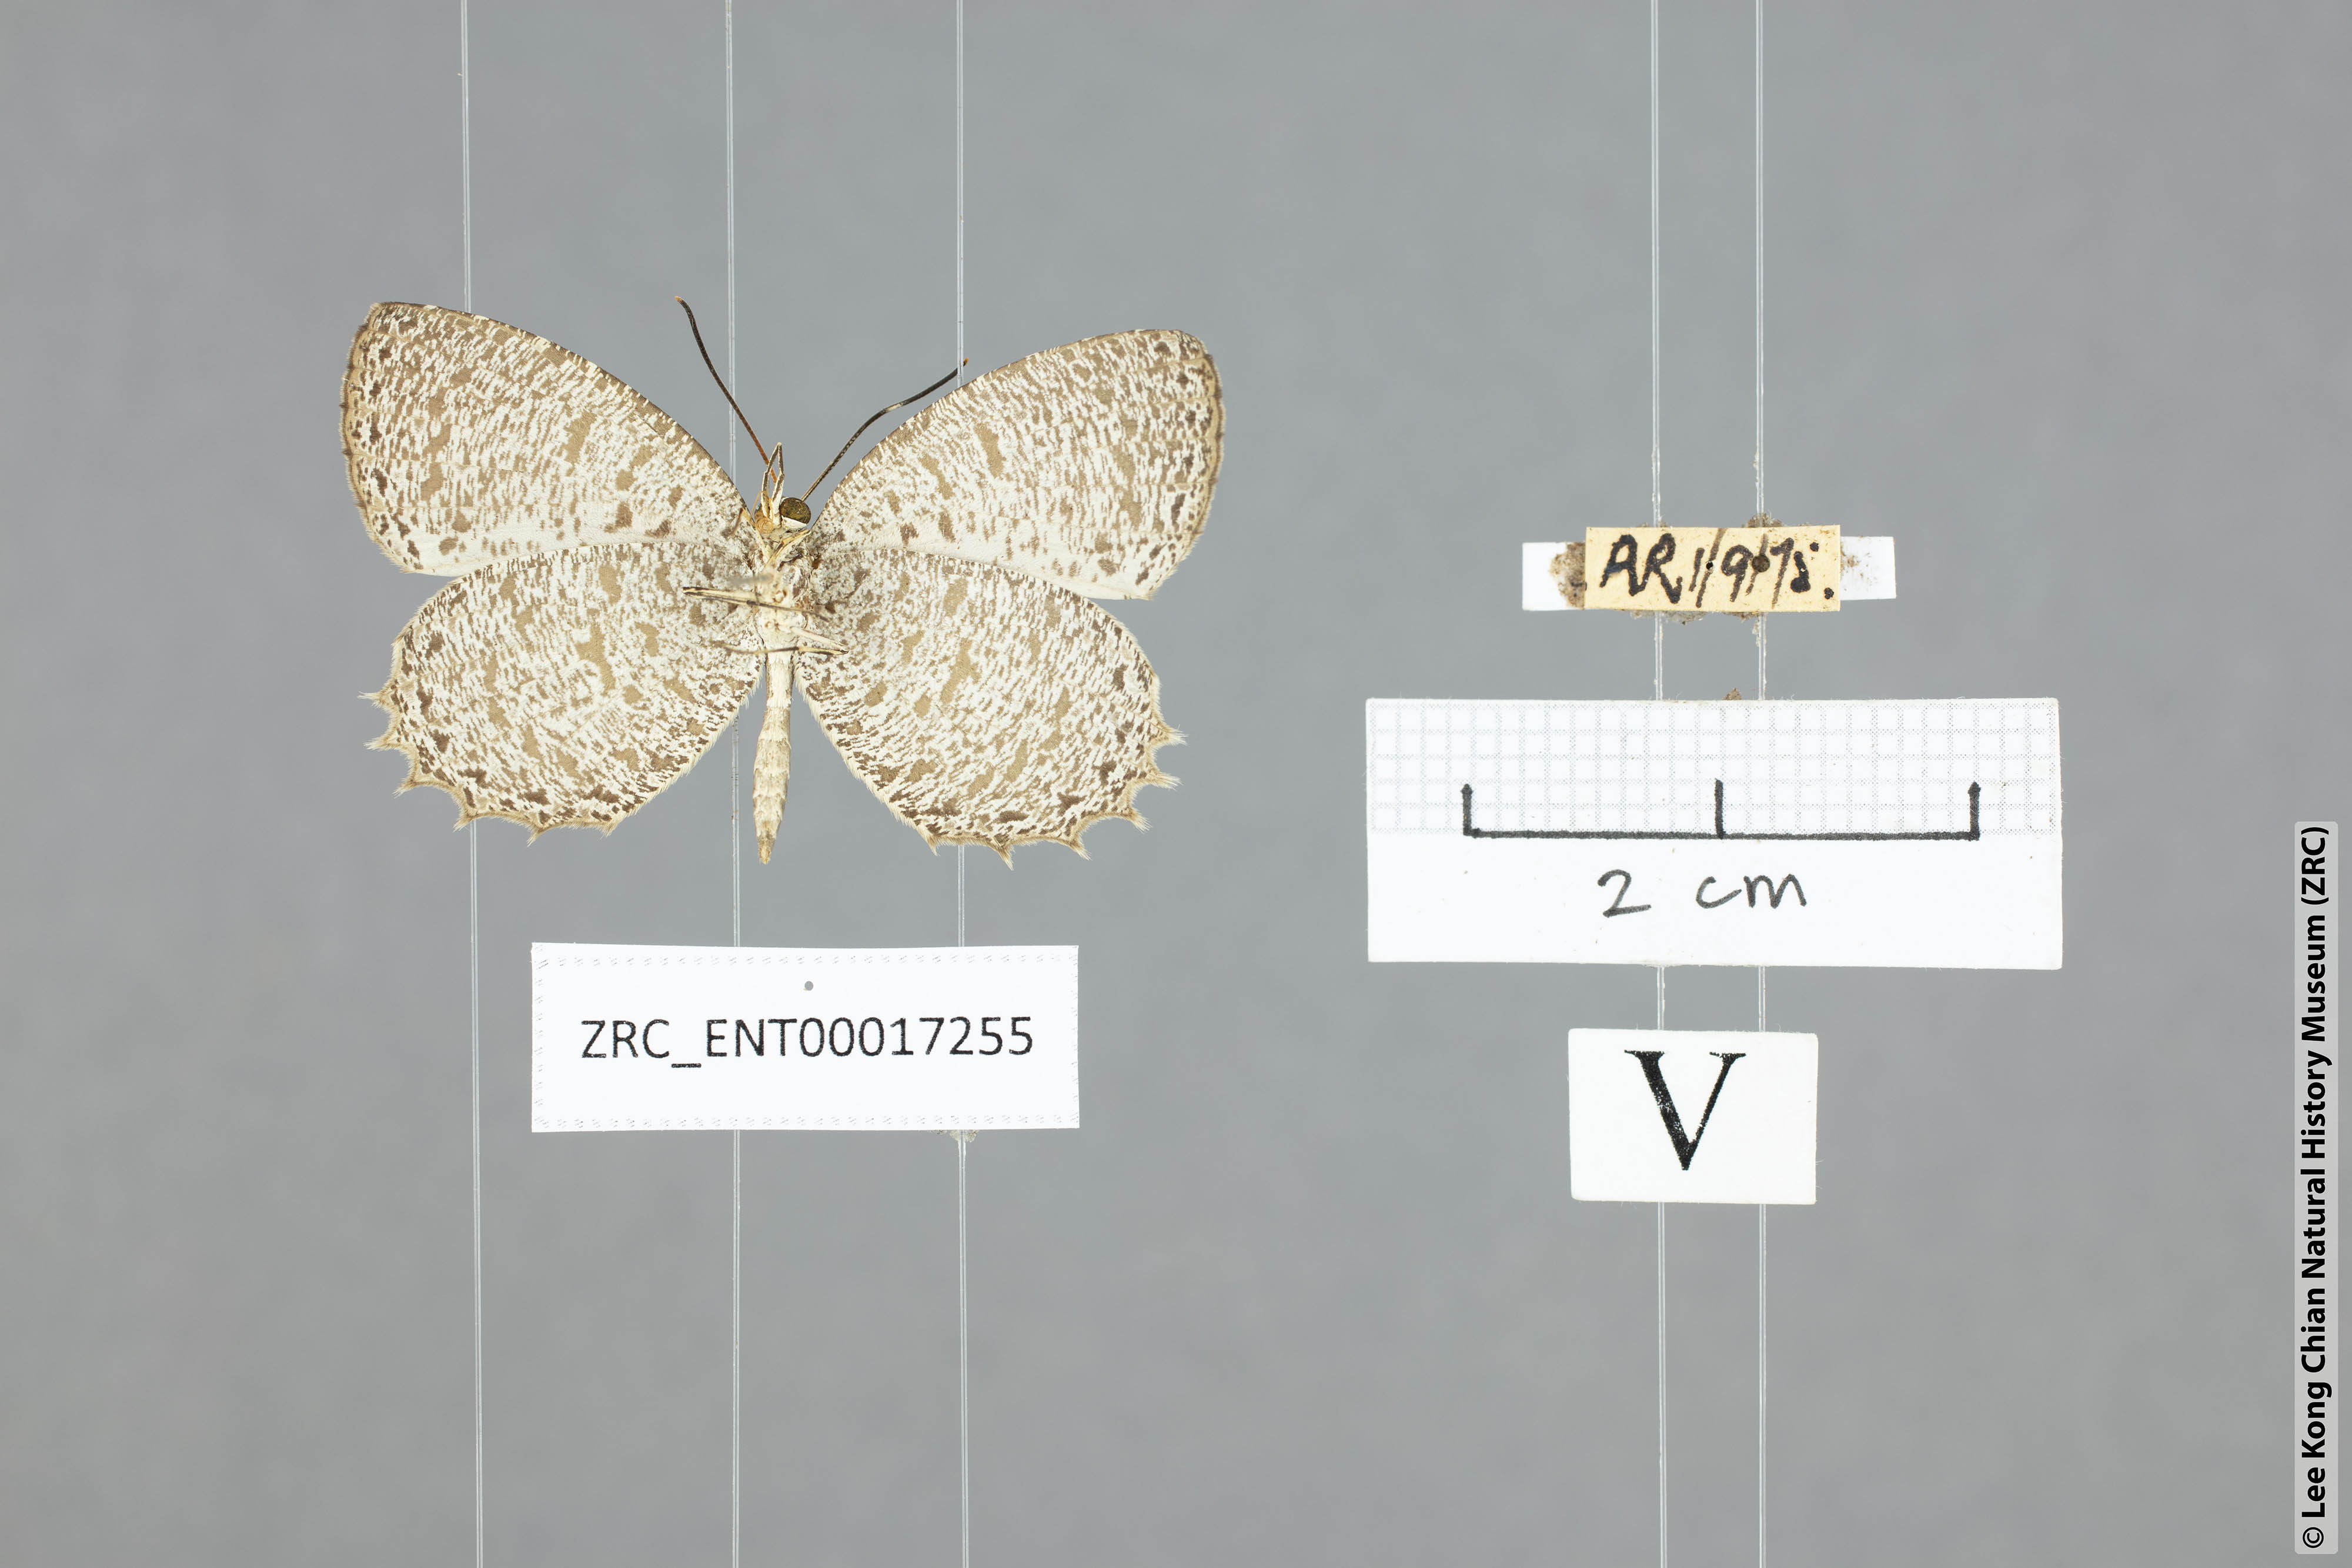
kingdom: Animalia
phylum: Arthropoda
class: Insecta
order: Lepidoptera
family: Lycaenidae
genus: Allotinus
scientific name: Allotinus horsfieldi
